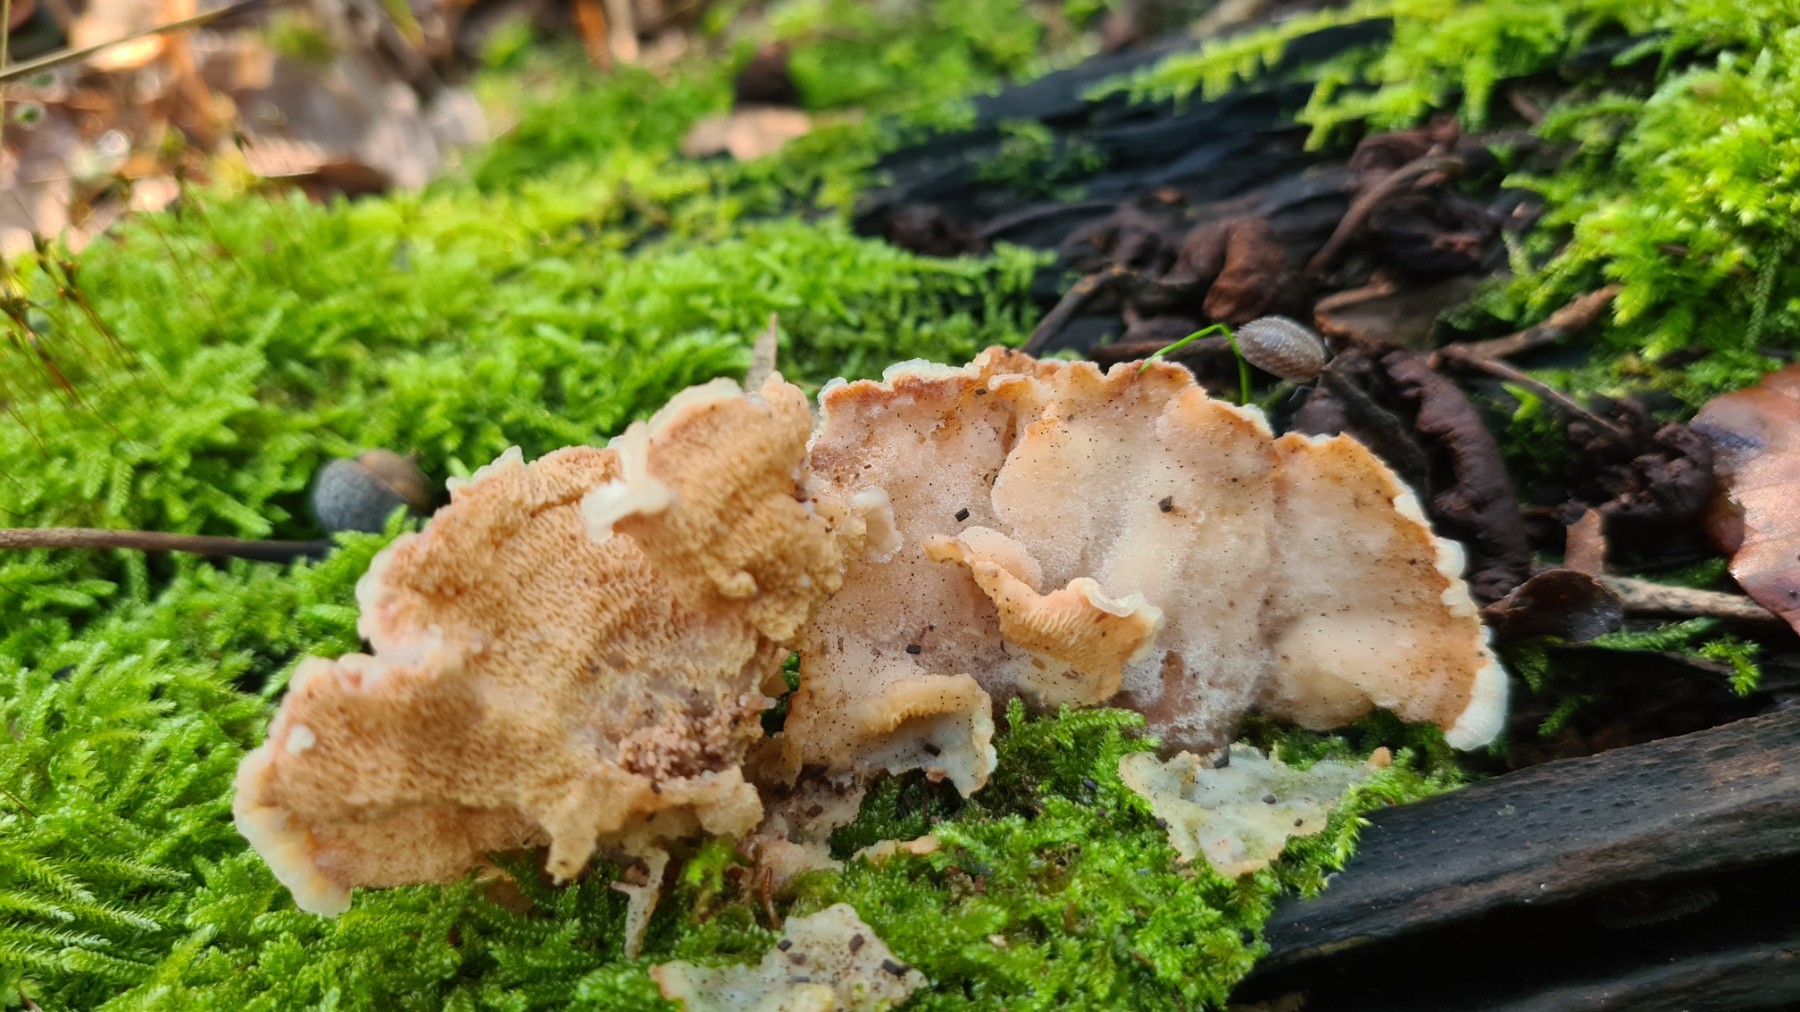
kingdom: Fungi
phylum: Basidiomycota
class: Agaricomycetes
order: Polyporales
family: Meruliaceae
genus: Phlebia
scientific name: Phlebia tremellosa
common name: bævrende åresvamp
